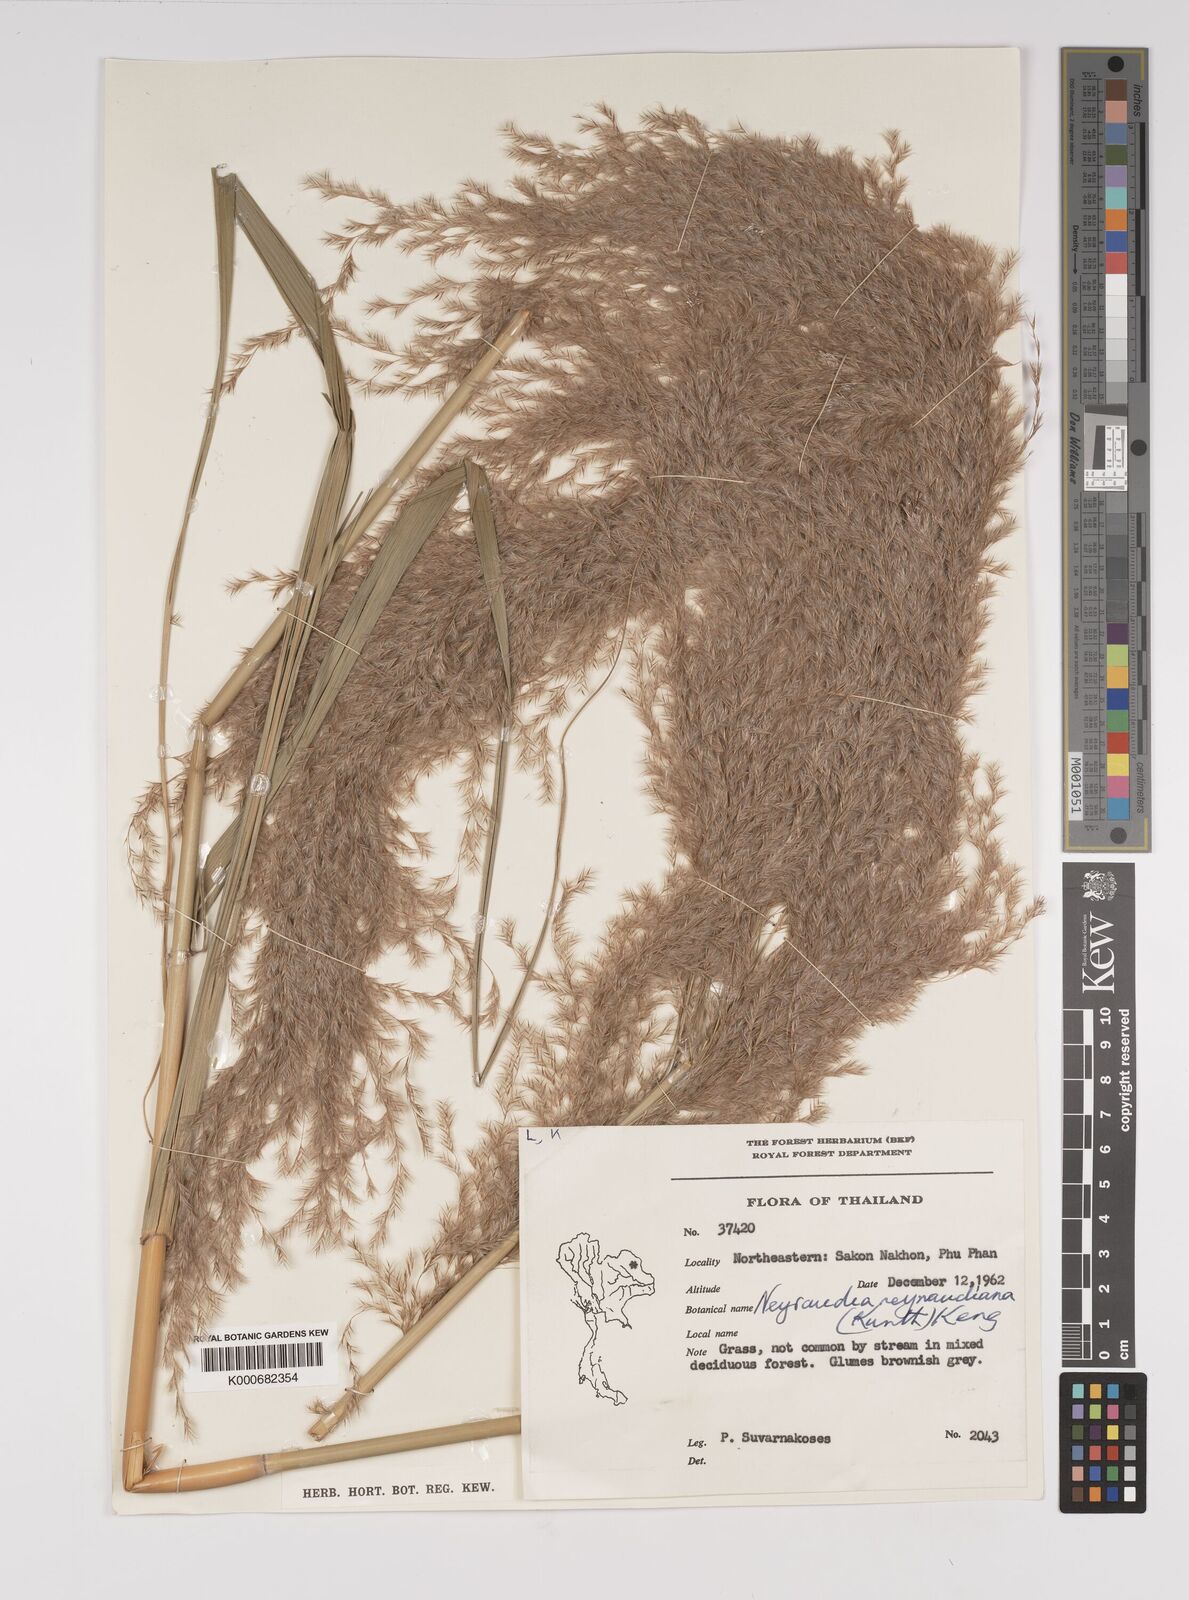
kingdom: Plantae
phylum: Tracheophyta
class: Liliopsida
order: Poales
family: Poaceae
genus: Neyraudia
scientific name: Neyraudia reynaudiana
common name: Silkreed
